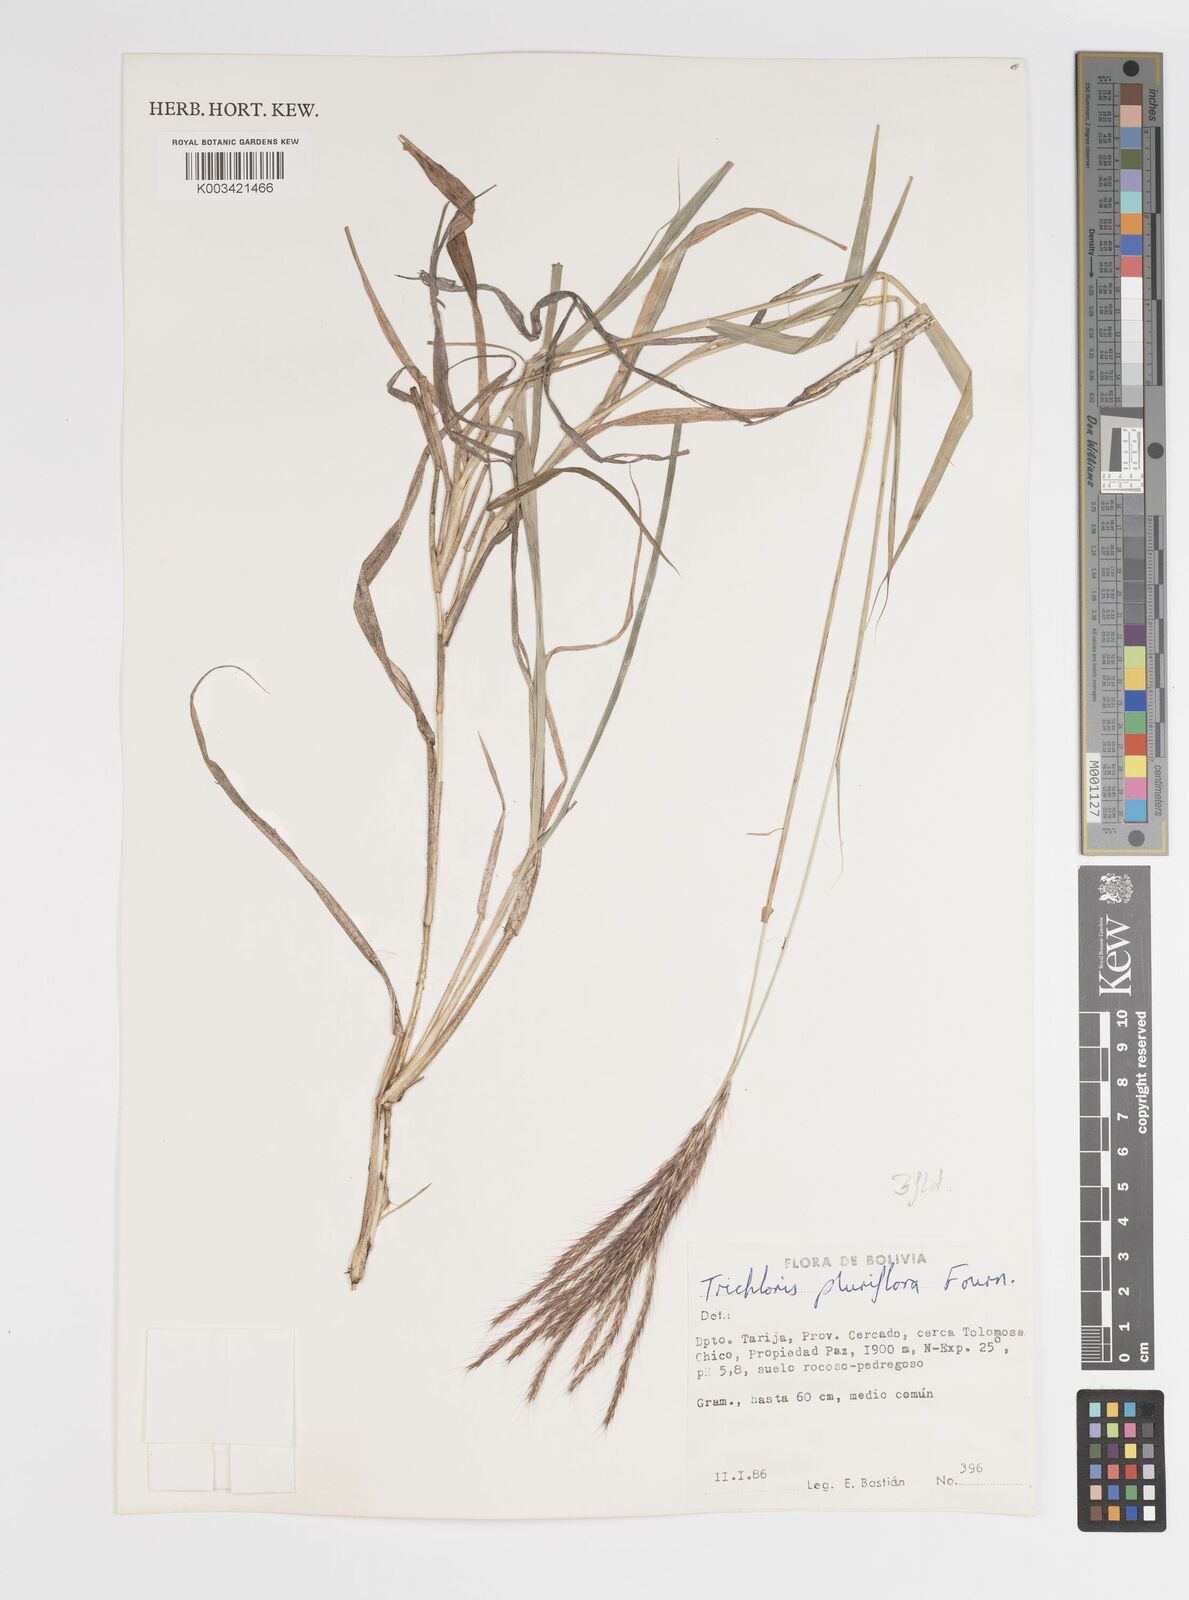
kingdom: Plantae
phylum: Tracheophyta
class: Liliopsida
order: Poales
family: Poaceae
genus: Leptochloa
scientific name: Leptochloa pluriflora
